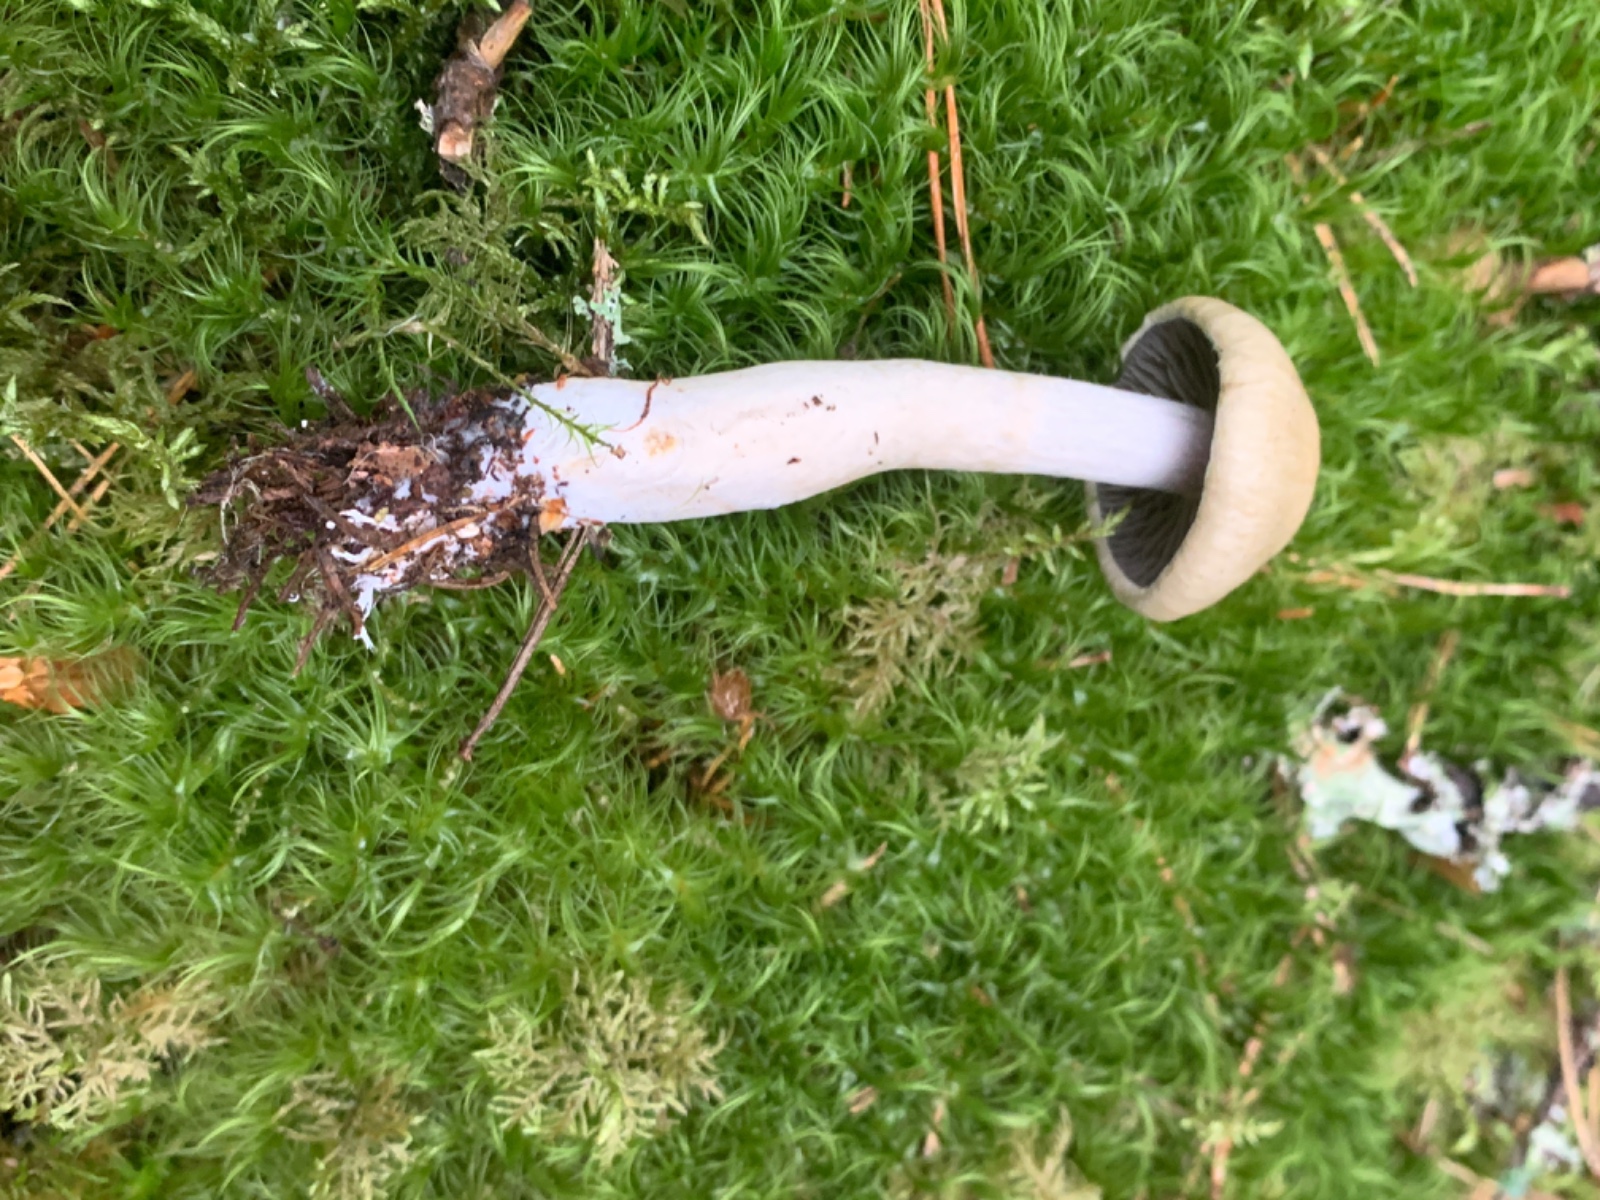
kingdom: Fungi
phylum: Basidiomycota
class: Agaricomycetes
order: Agaricales
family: Cortinariaceae
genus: Cortinarius
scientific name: Cortinarius subtortus
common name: olivengul slørhat
